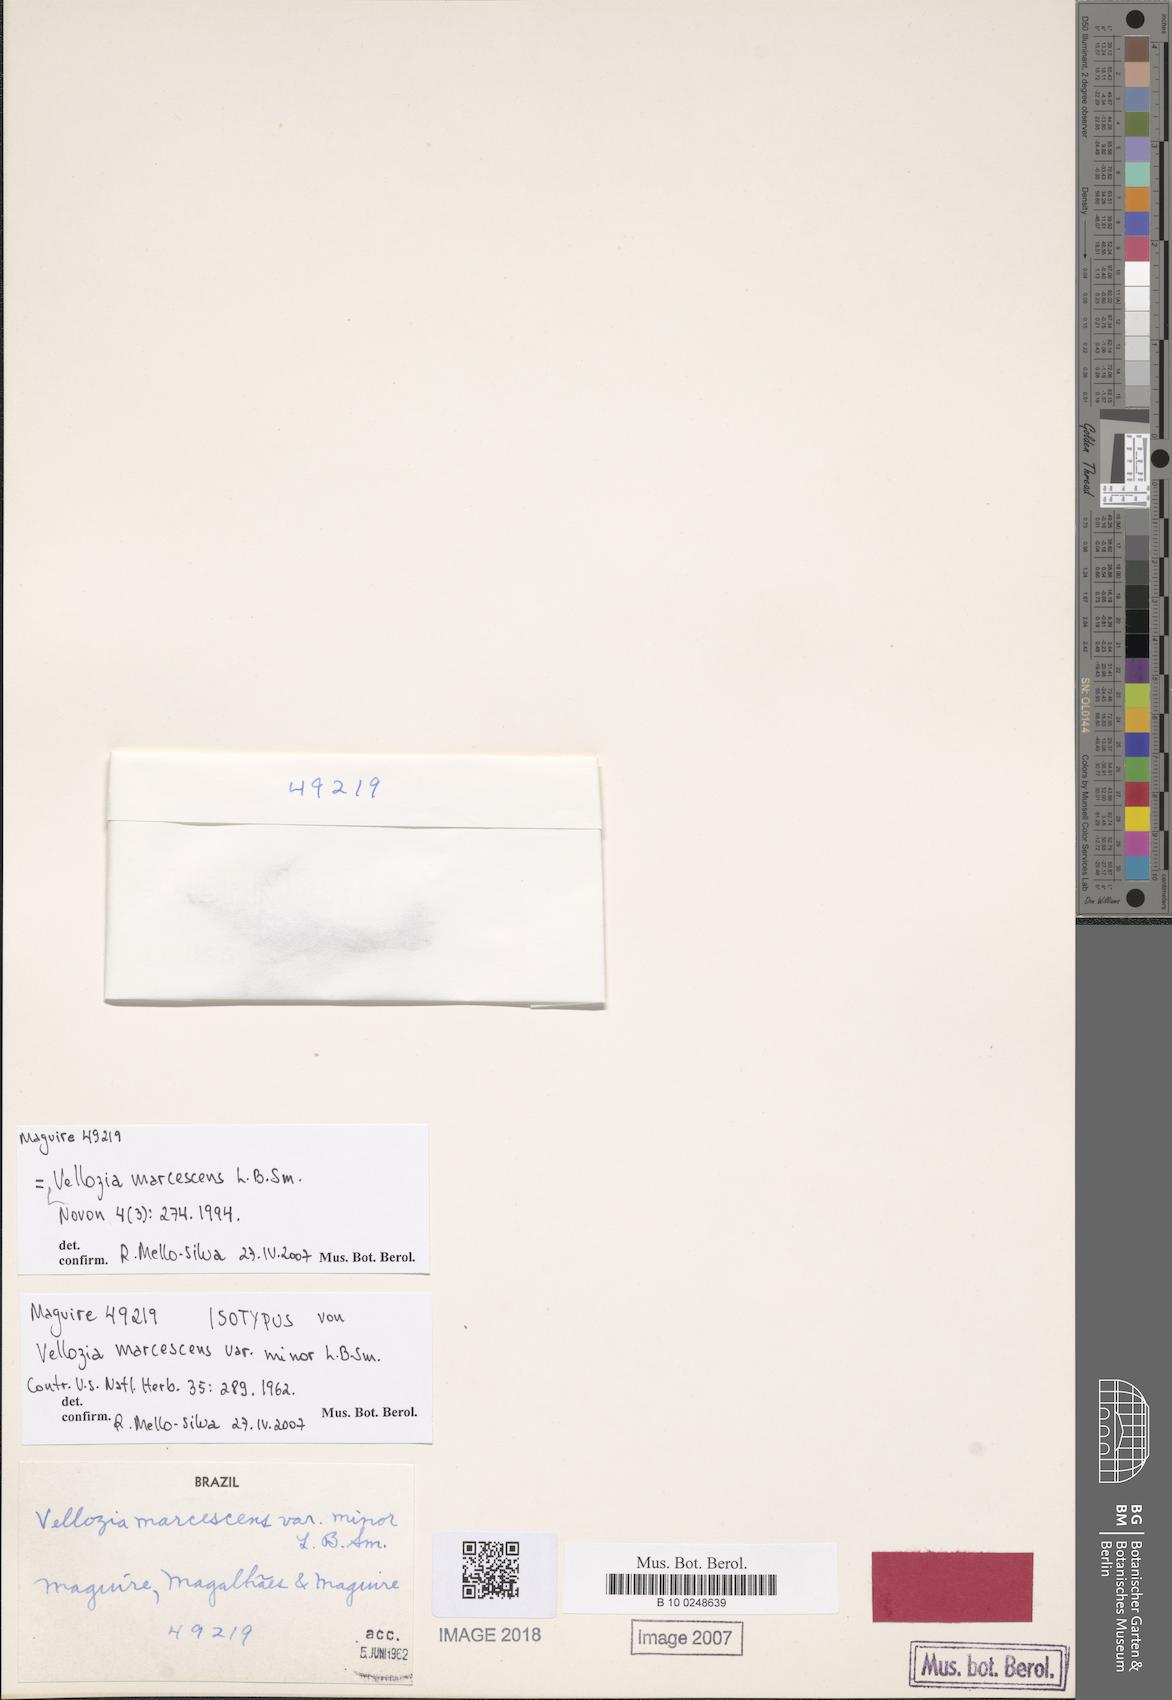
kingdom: Plantae
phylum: Tracheophyta
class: Liliopsida
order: Pandanales
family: Velloziaceae
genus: Vellozia
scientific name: Vellozia marcescens
